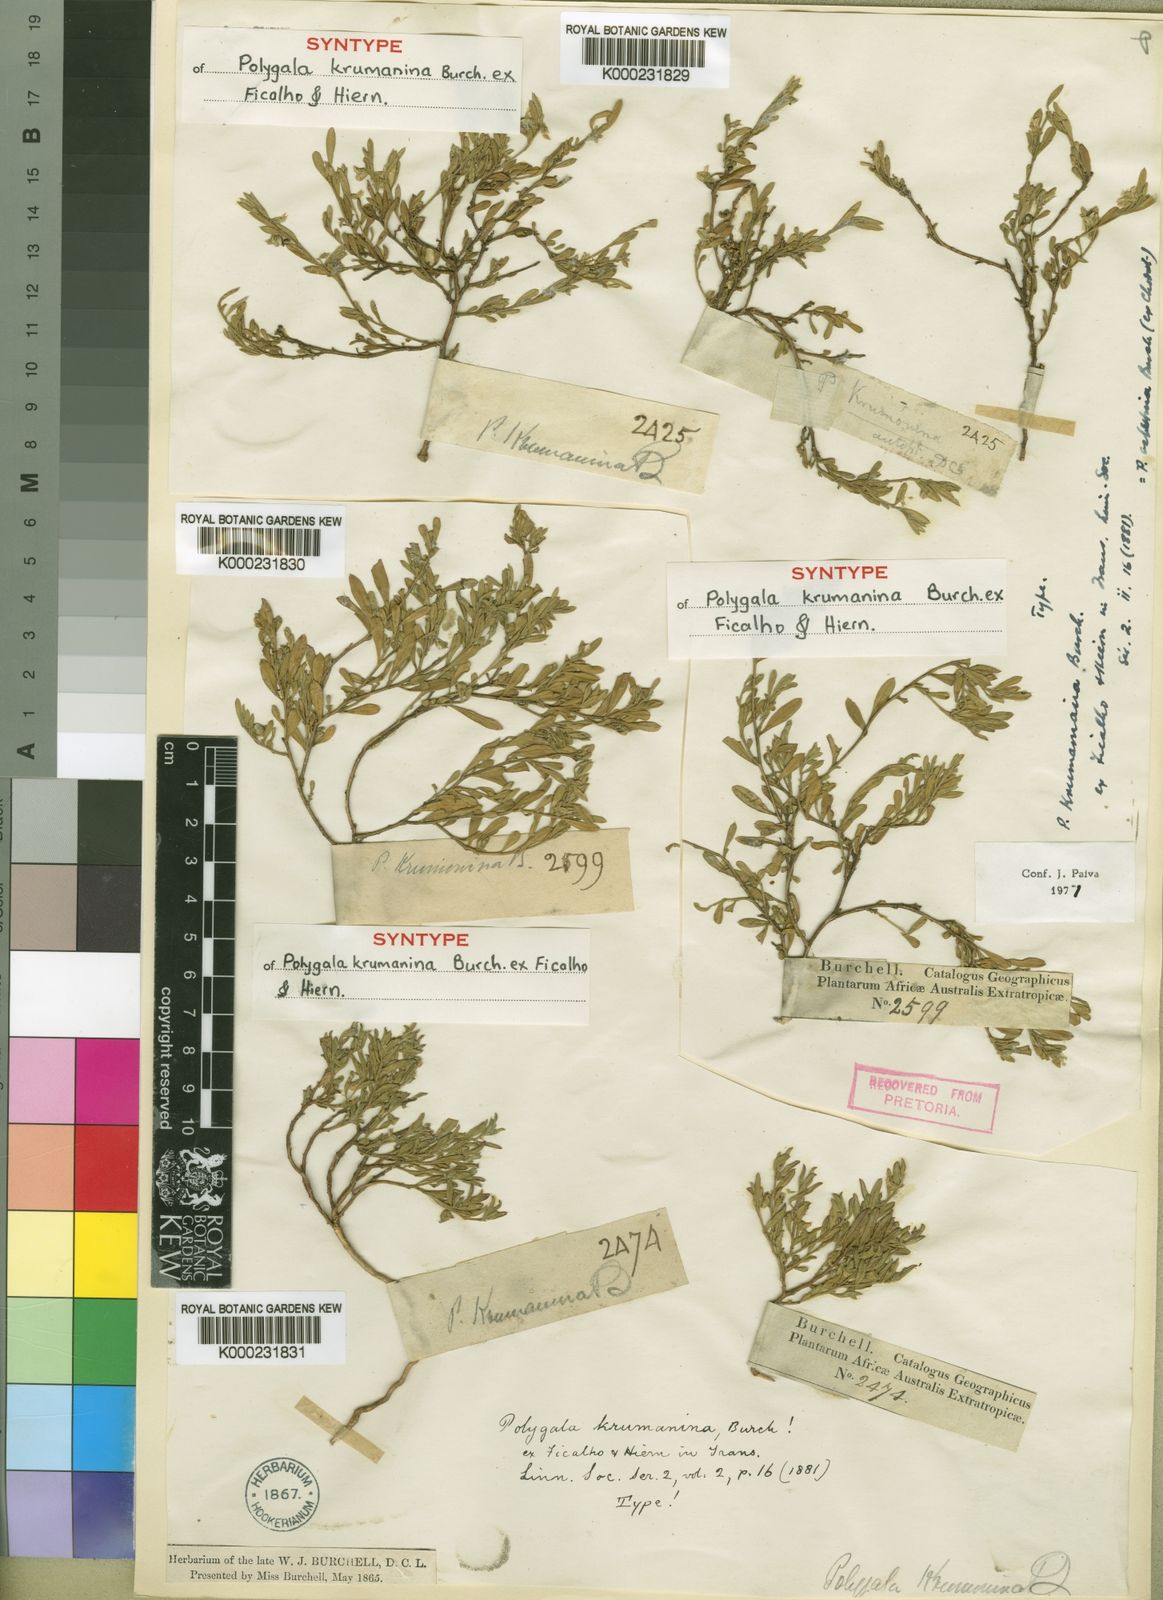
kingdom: Plantae
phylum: Tracheophyta
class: Magnoliopsida
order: Fabales
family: Polygalaceae
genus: Polygala
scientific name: Polygala krumanina
